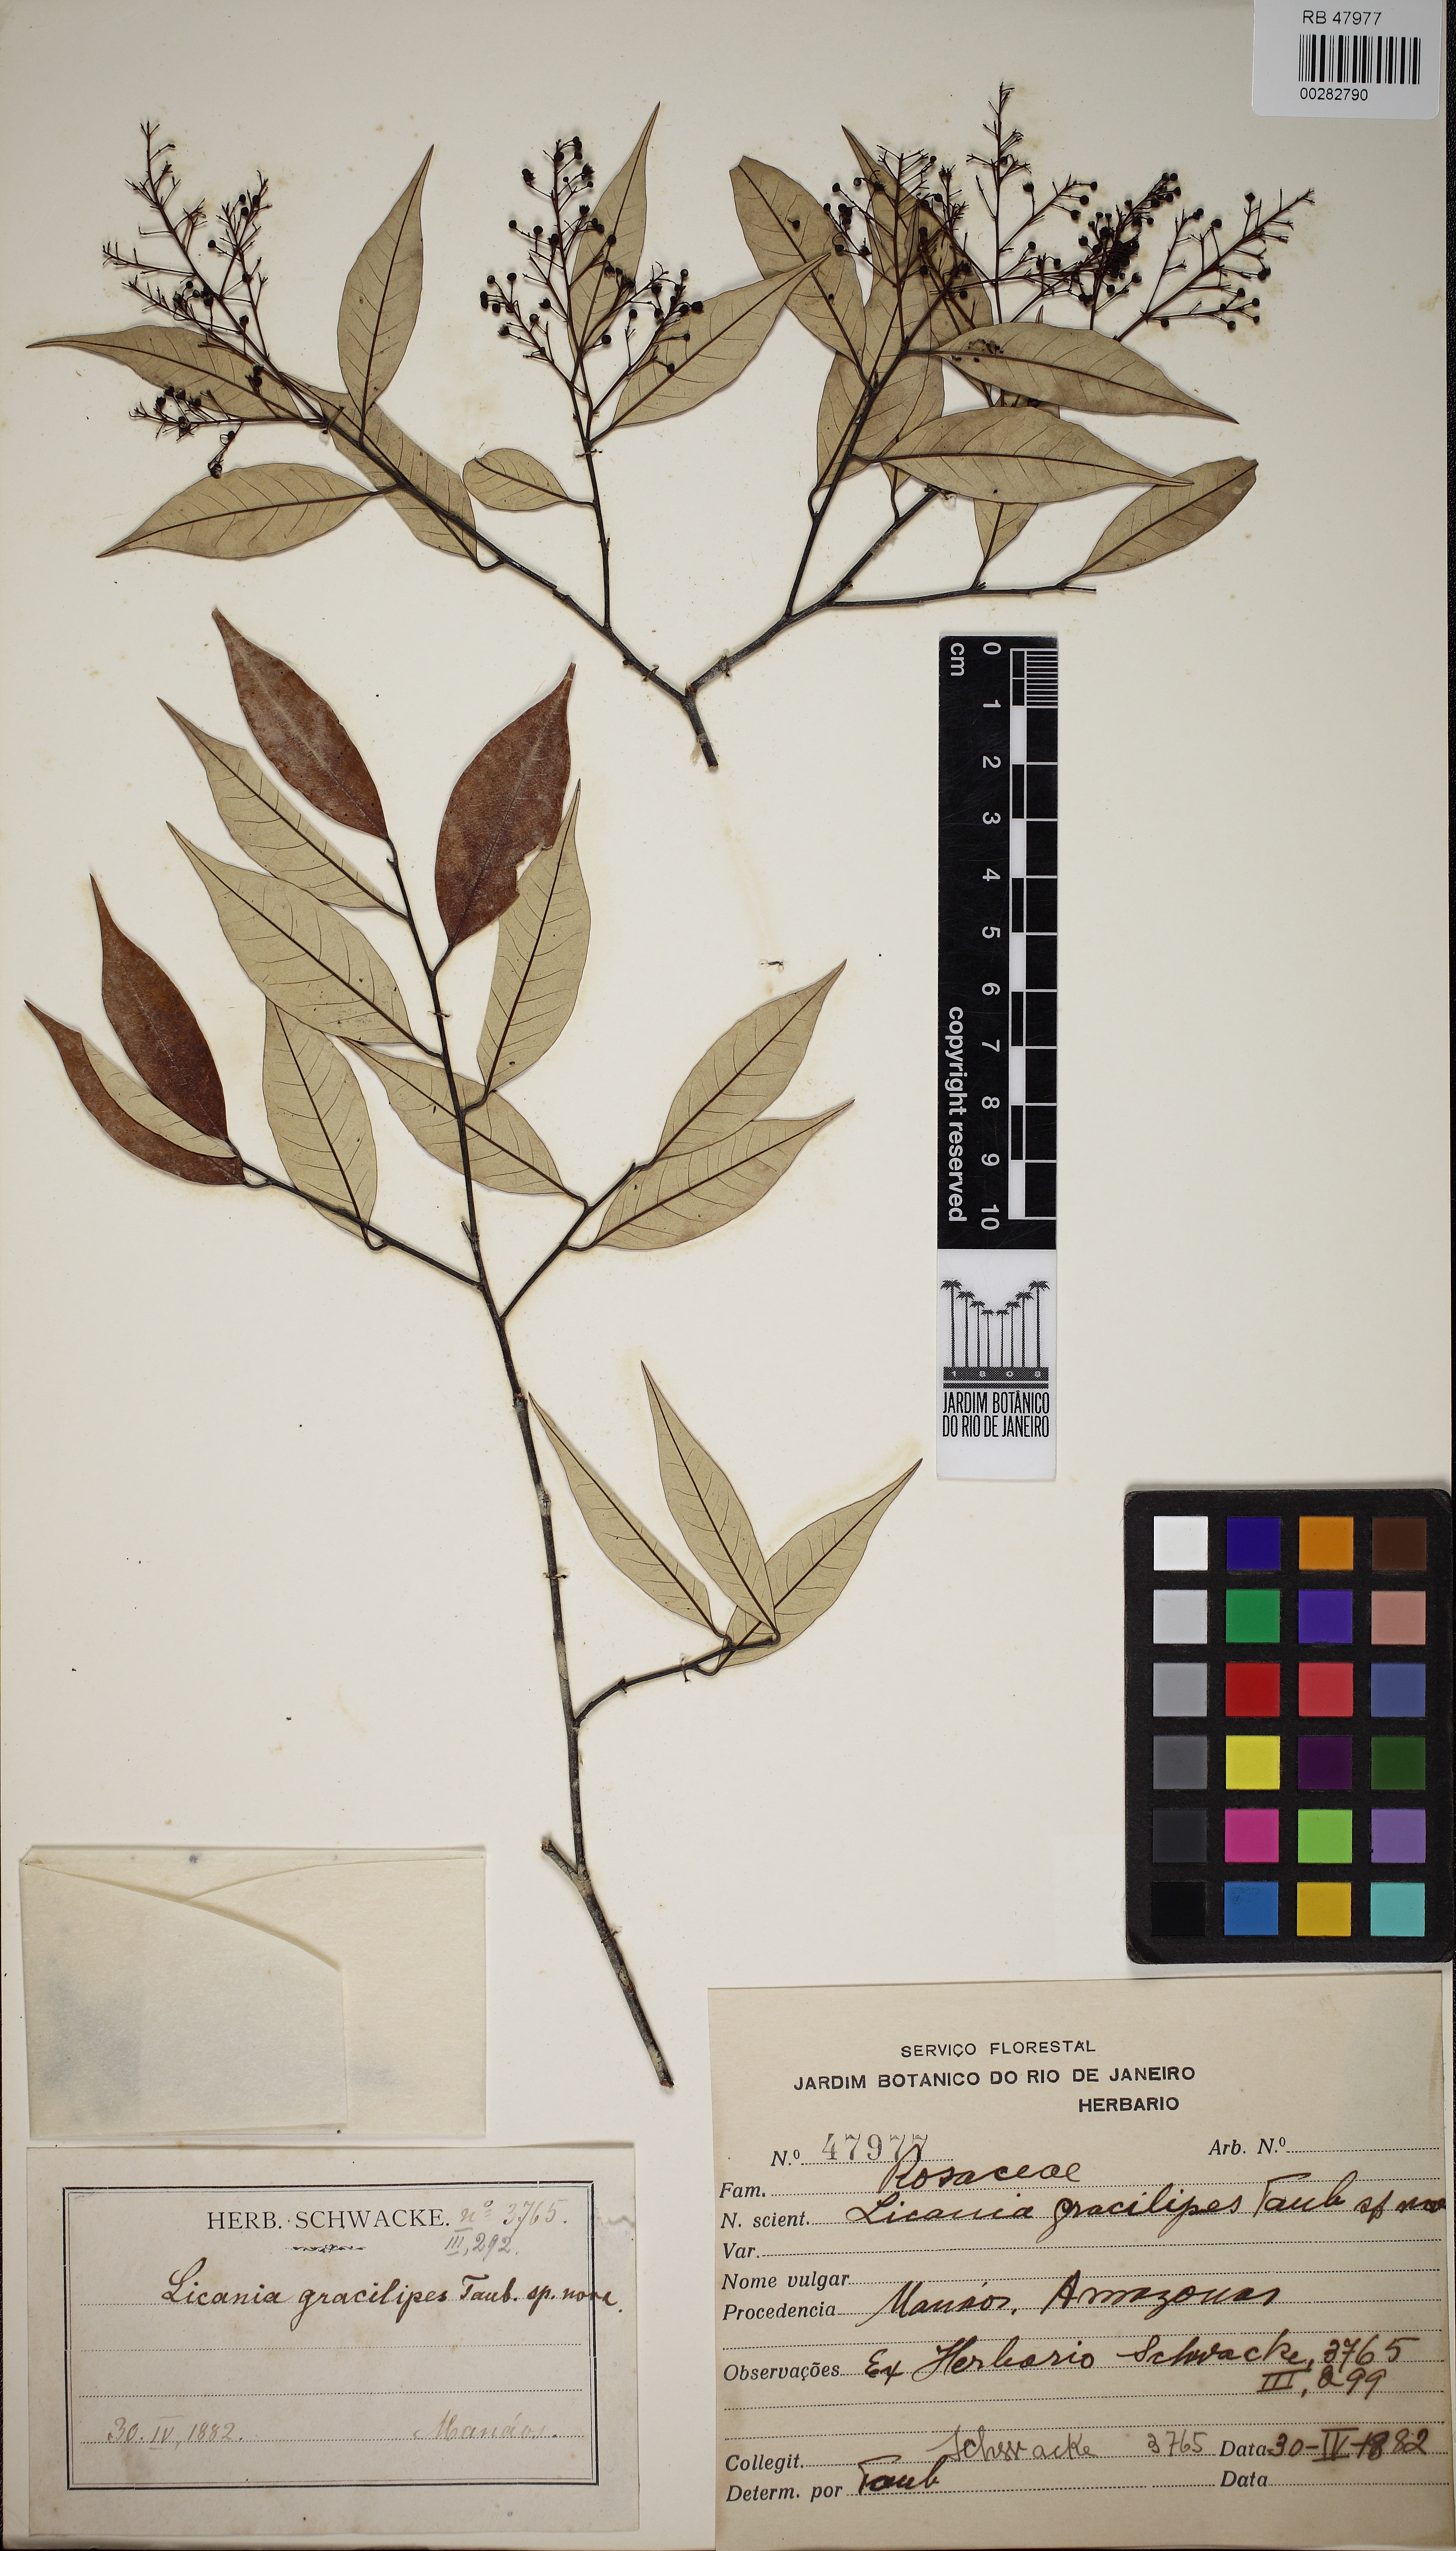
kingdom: Plantae
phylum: Tracheophyta
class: Magnoliopsida
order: Malpighiales
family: Chrysobalanaceae
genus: Licania
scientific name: Licania gracilipes
